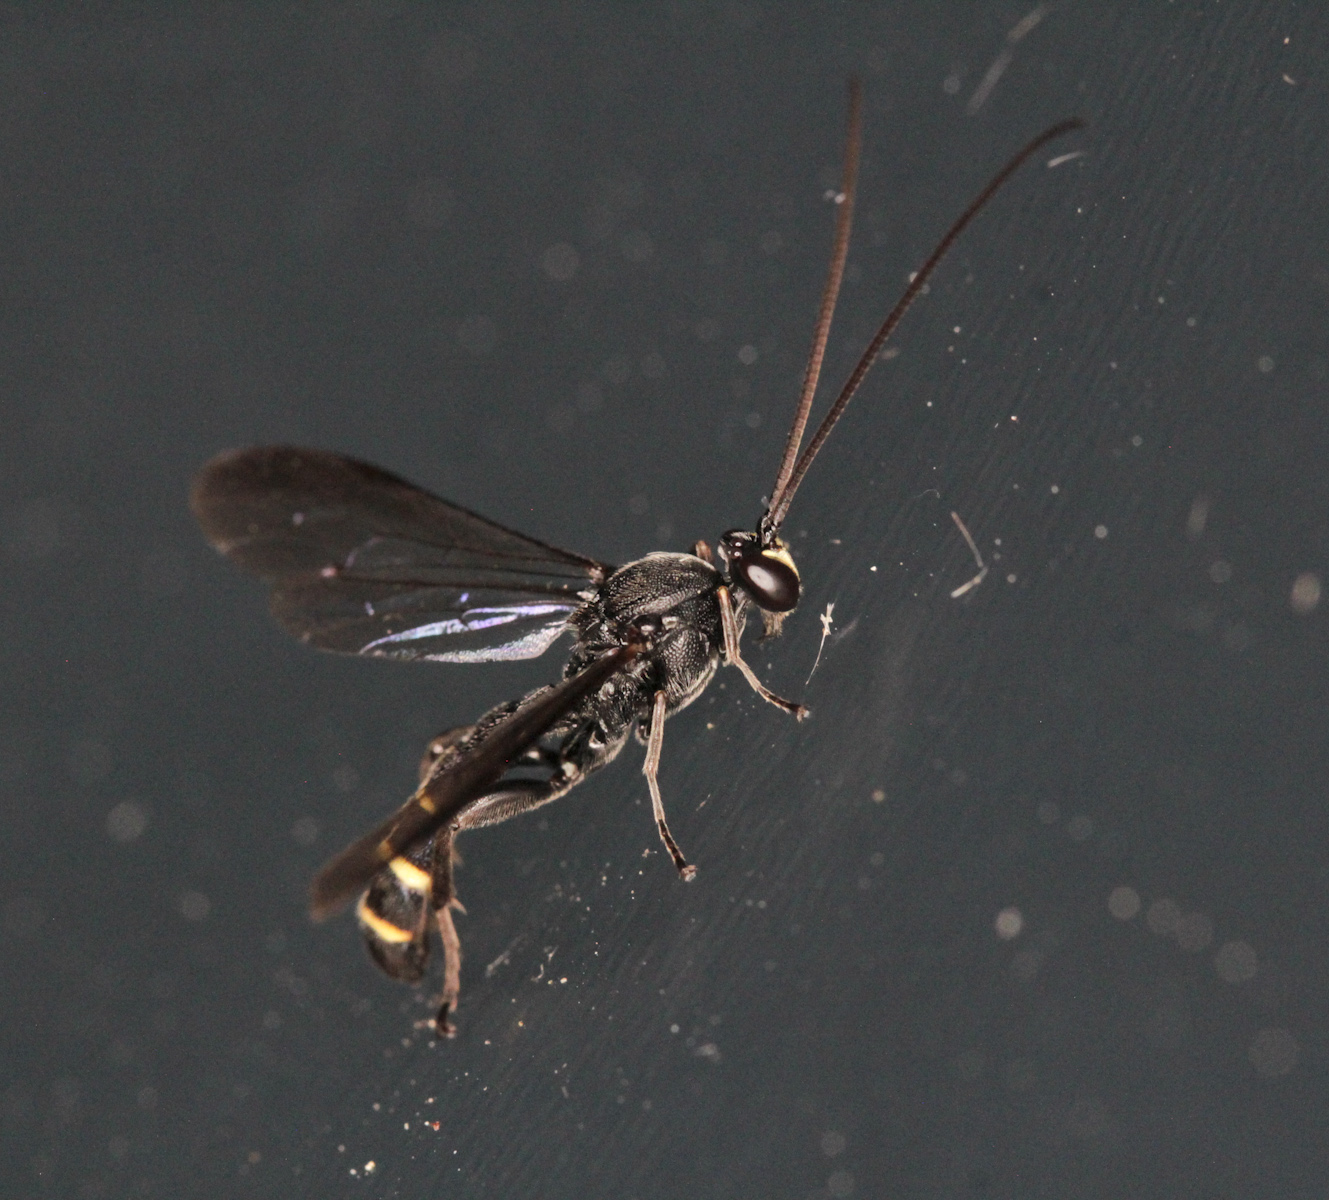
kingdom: Animalia
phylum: Arthropoda
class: Insecta
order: Hymenoptera
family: Ichneumonidae
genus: Metopius
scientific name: Metopius
